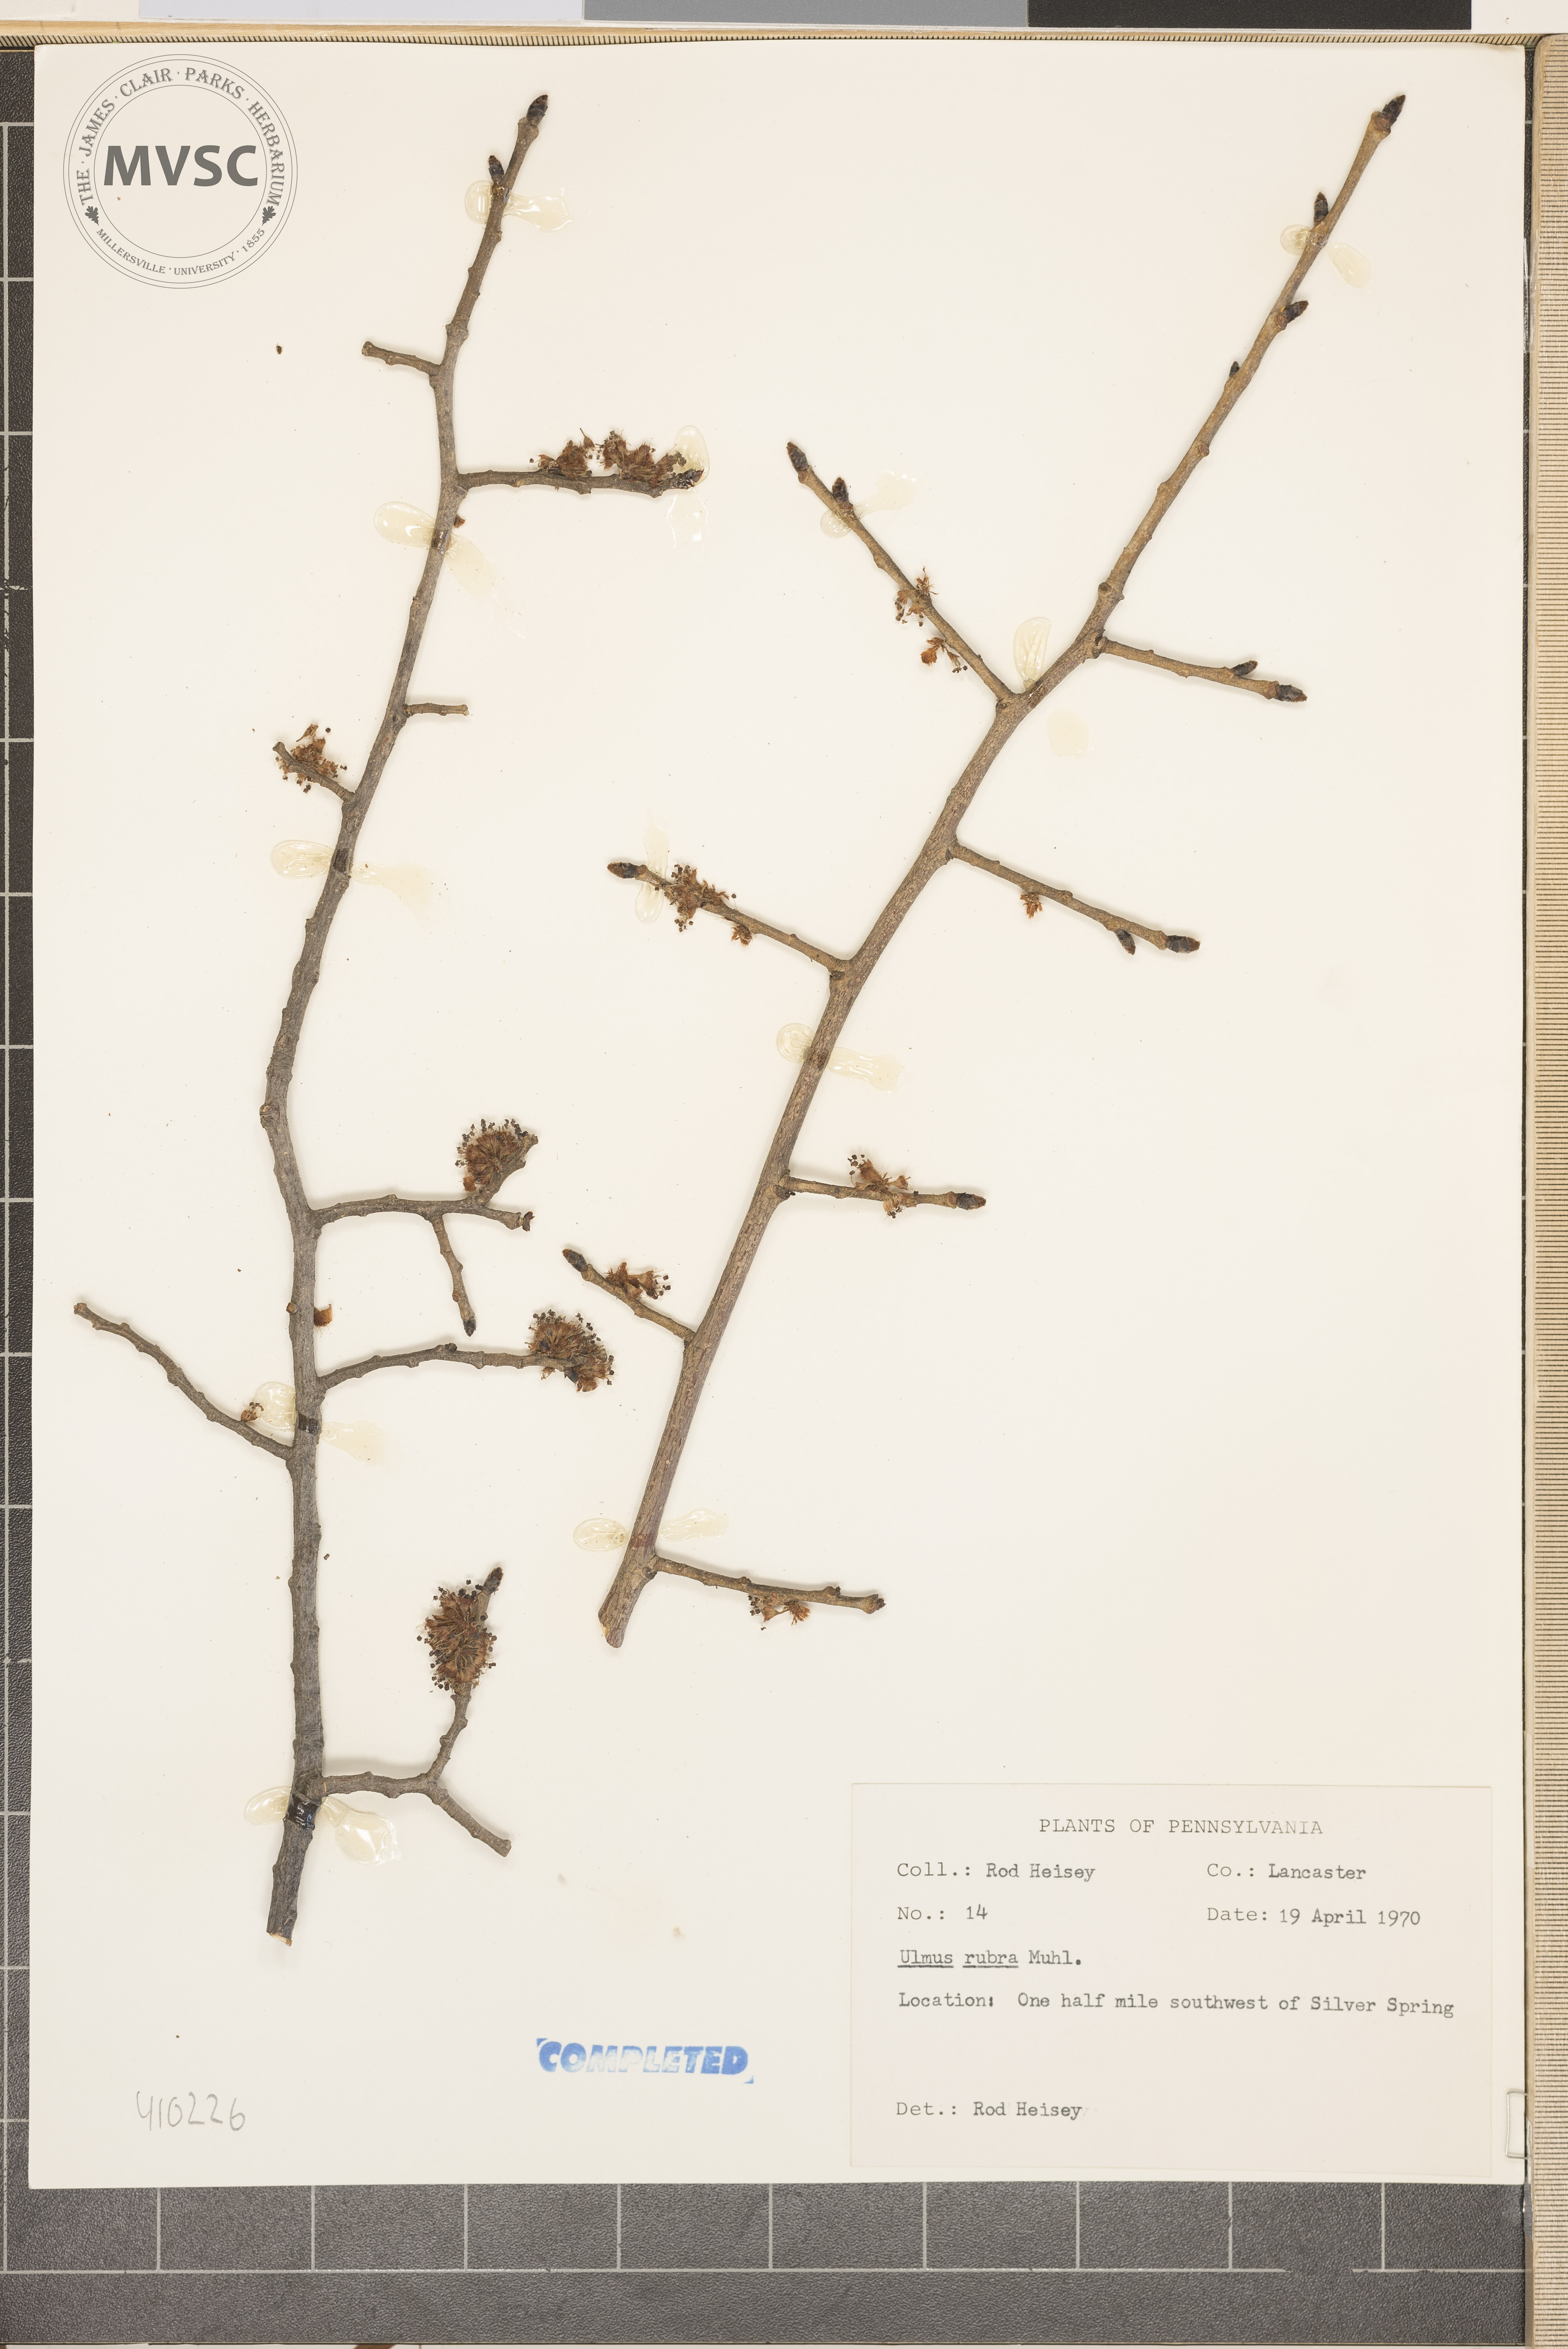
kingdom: Plantae
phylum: Tracheophyta
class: Magnoliopsida
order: Rosales
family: Ulmaceae
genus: Ulmus
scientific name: Ulmus rubra
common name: slippery elm
